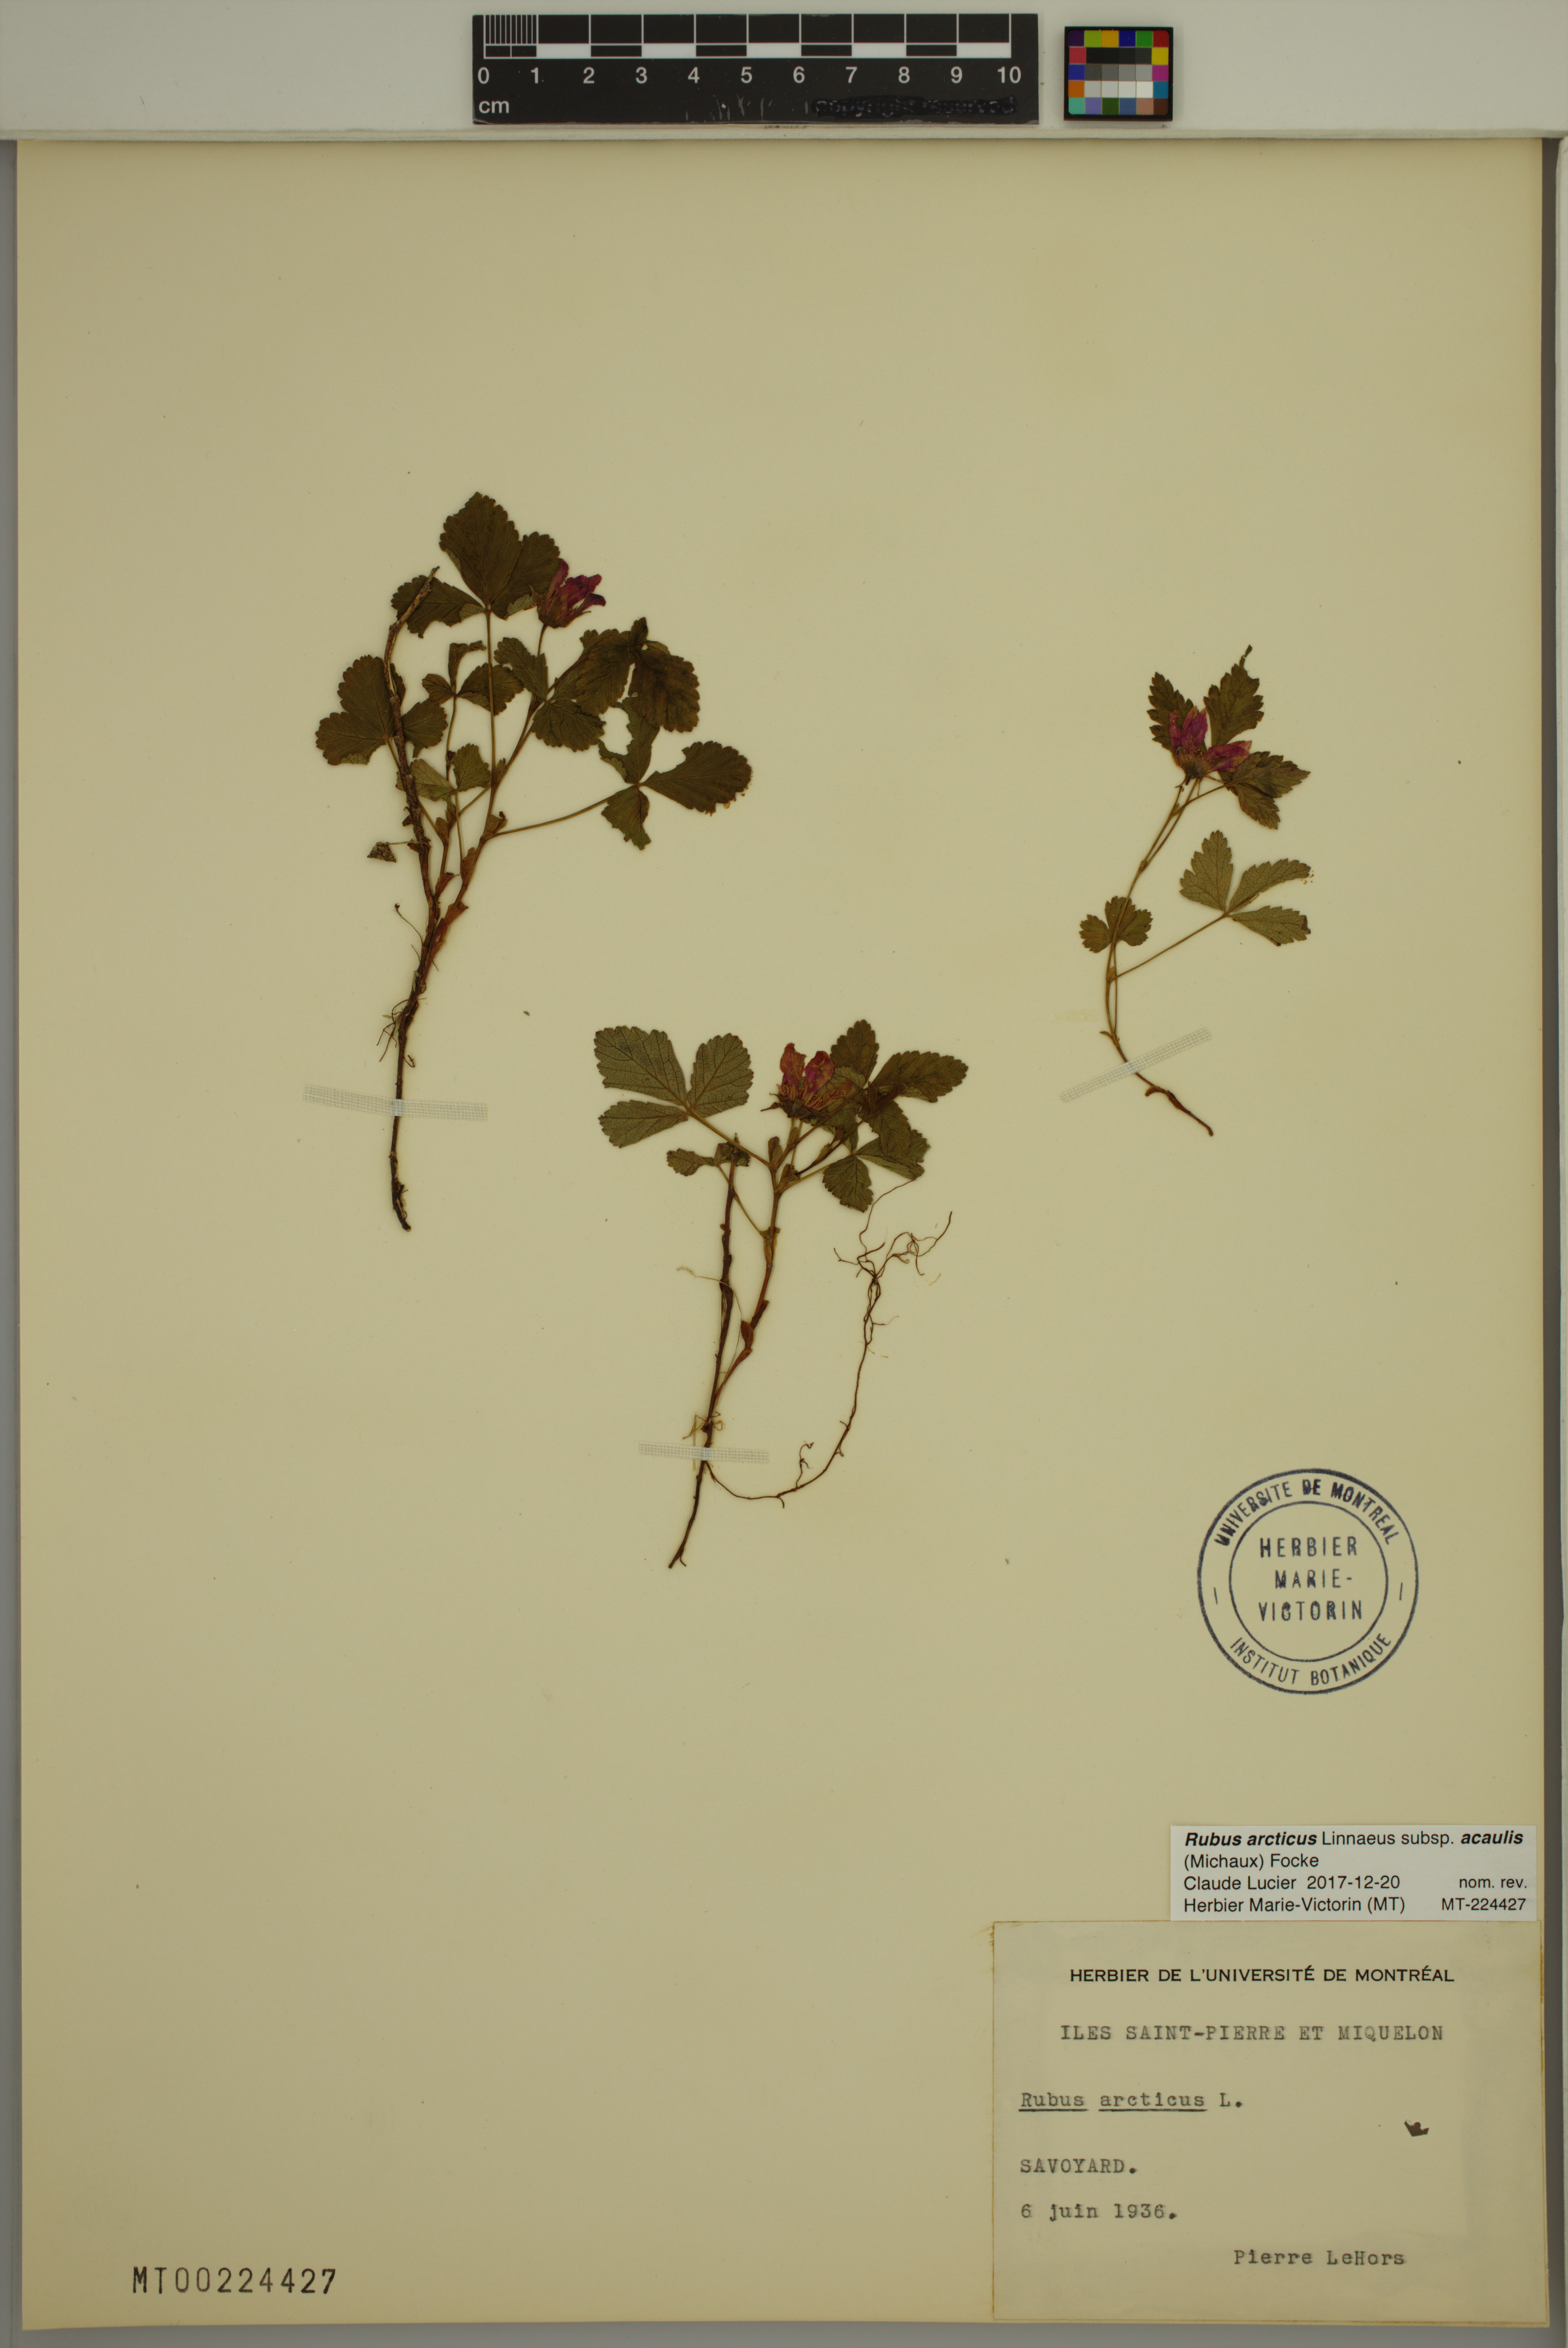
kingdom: Plantae
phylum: Tracheophyta
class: Magnoliopsida
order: Rosales
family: Rosaceae
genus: Rubus
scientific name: Rubus arcticus
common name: Arctic bramble
